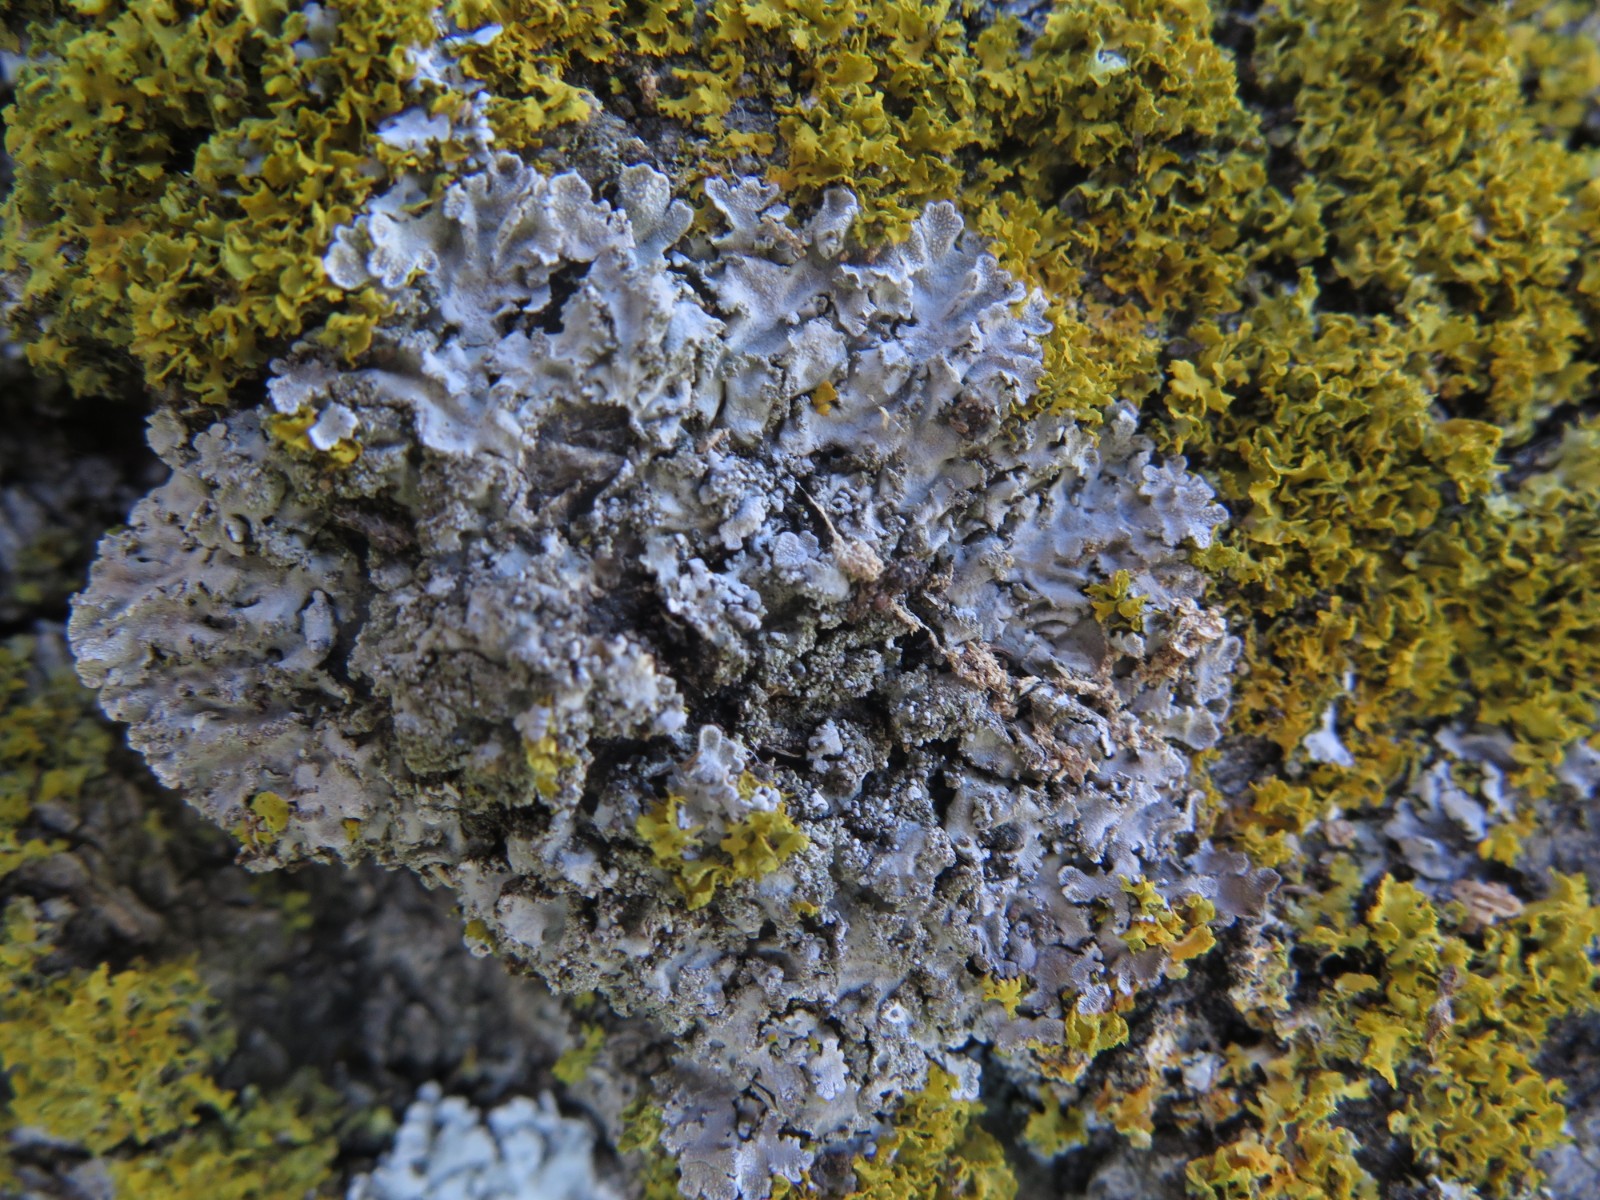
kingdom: Fungi
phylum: Ascomycota
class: Lecanoromycetes
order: Caliciales
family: Physciaceae
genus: Poeltonia
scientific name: Poeltonia grisea
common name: hvidgrå dugrosetlav
